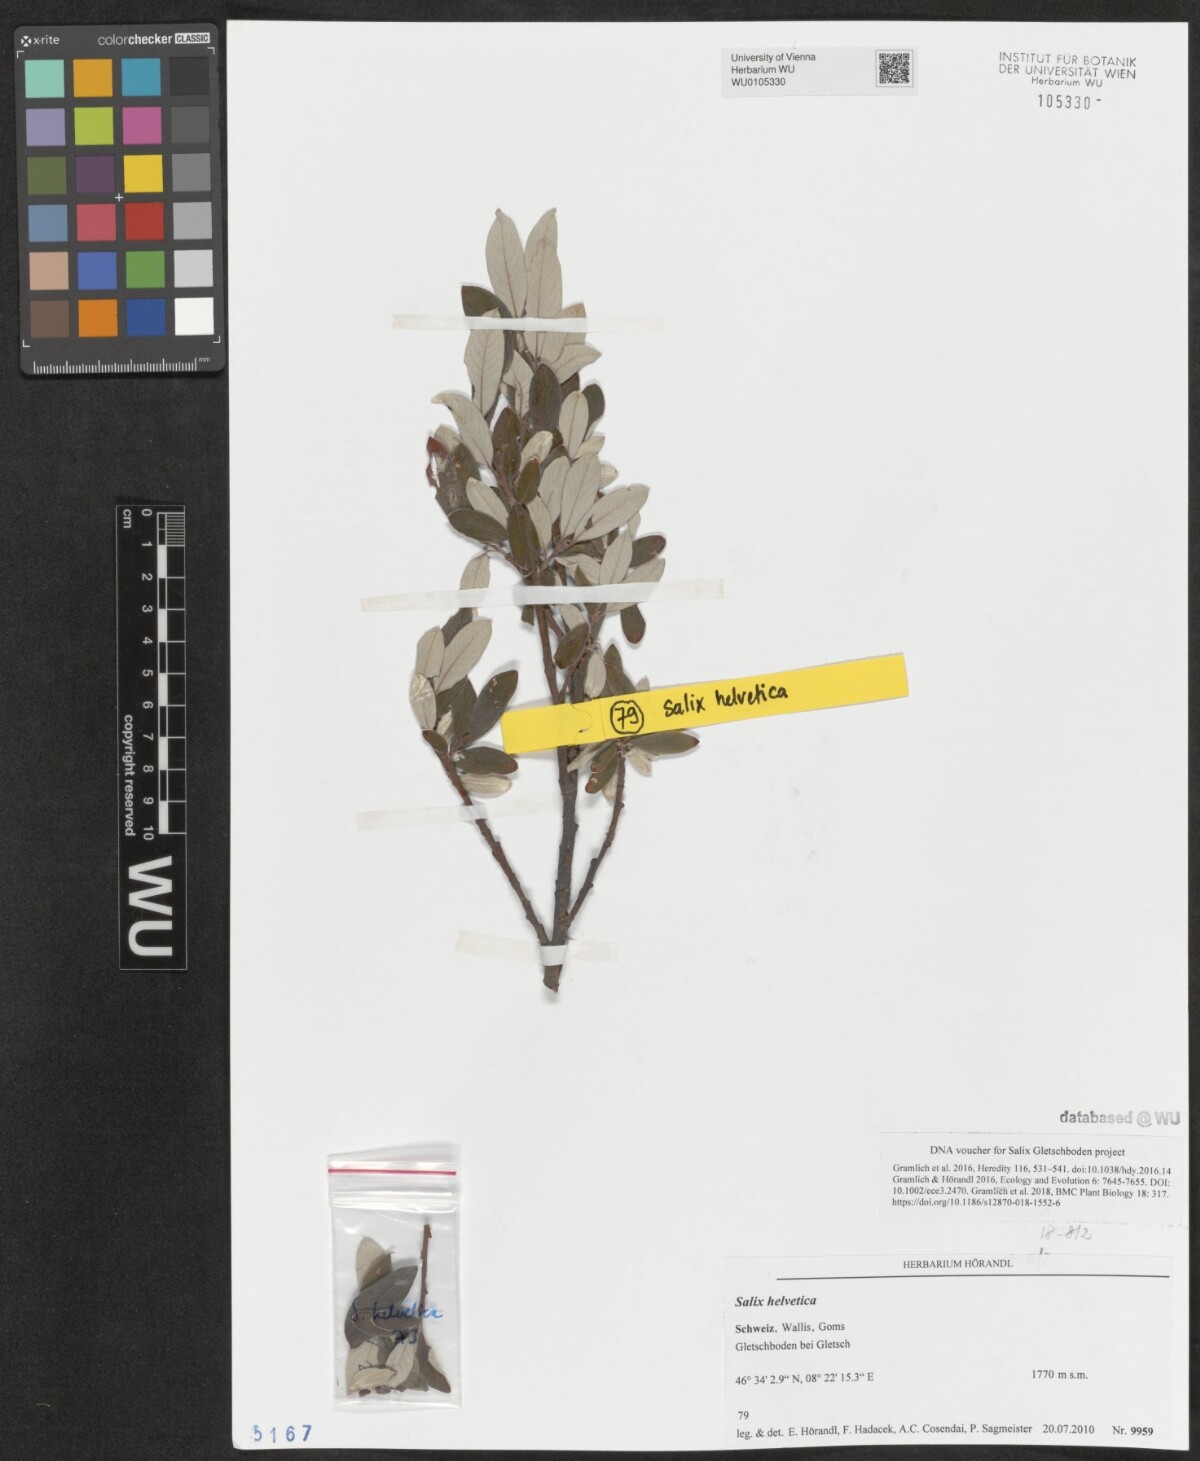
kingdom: Plantae
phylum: Tracheophyta
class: Magnoliopsida
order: Malpighiales
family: Salicaceae
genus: Salix
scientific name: Salix helvetica
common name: Swiss willow
